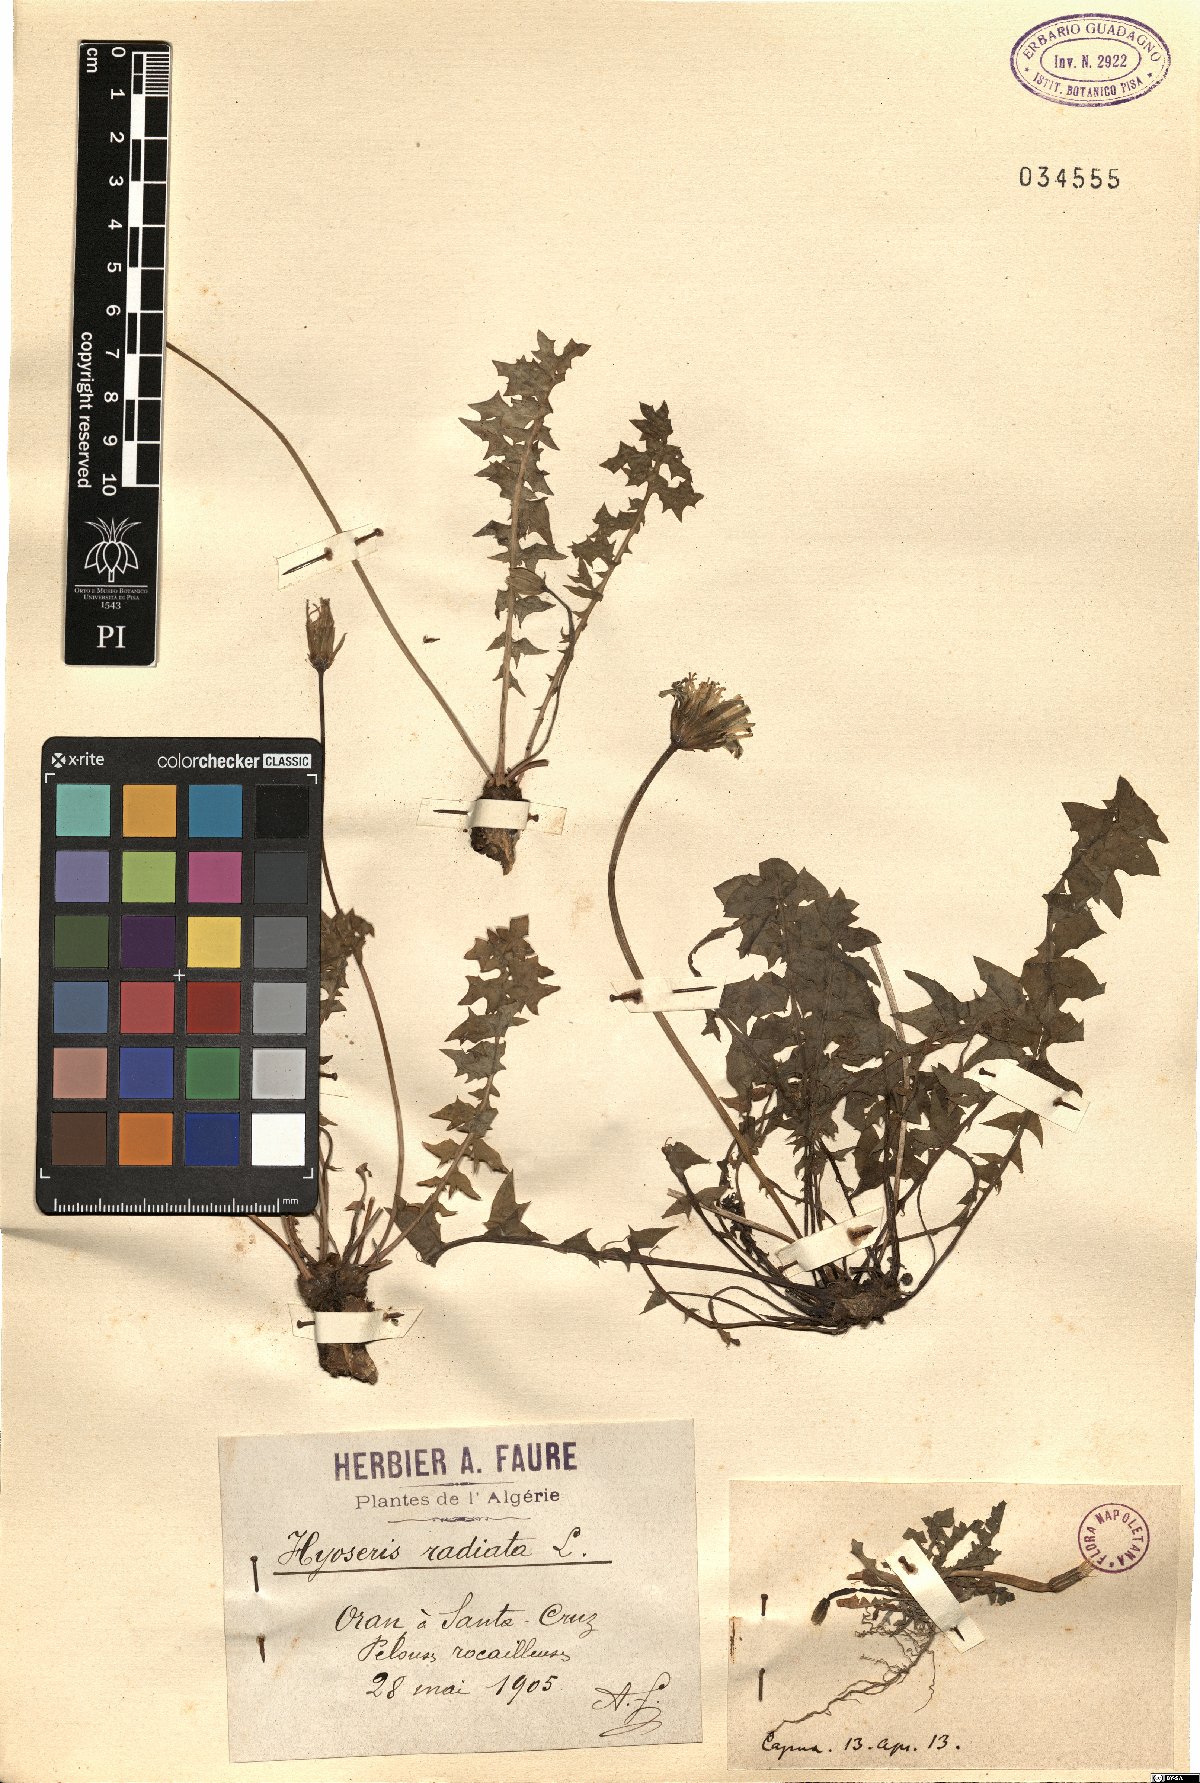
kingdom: Plantae
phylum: Tracheophyta
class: Magnoliopsida
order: Asterales
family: Asteraceae
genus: Hyoseris
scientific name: Hyoseris radiata
